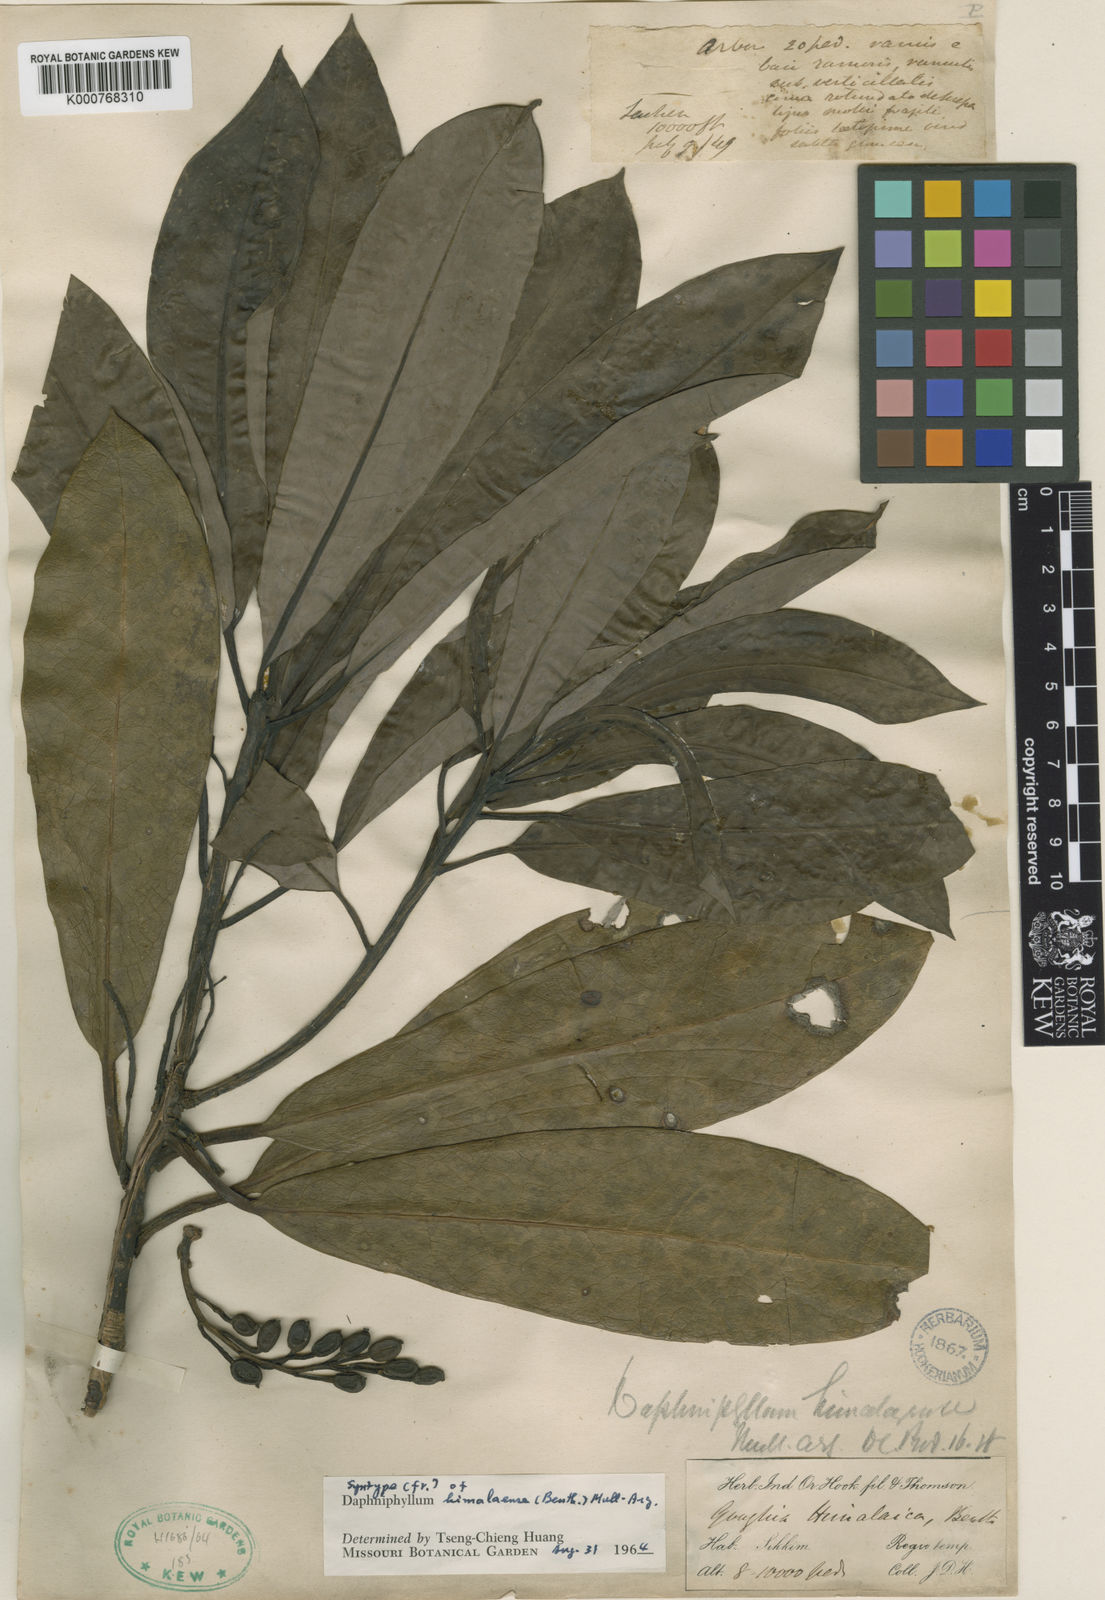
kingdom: Plantae
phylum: Tracheophyta
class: Magnoliopsida
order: Saxifragales
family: Daphniphyllaceae
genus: Daphniphyllum
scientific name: Daphniphyllum
